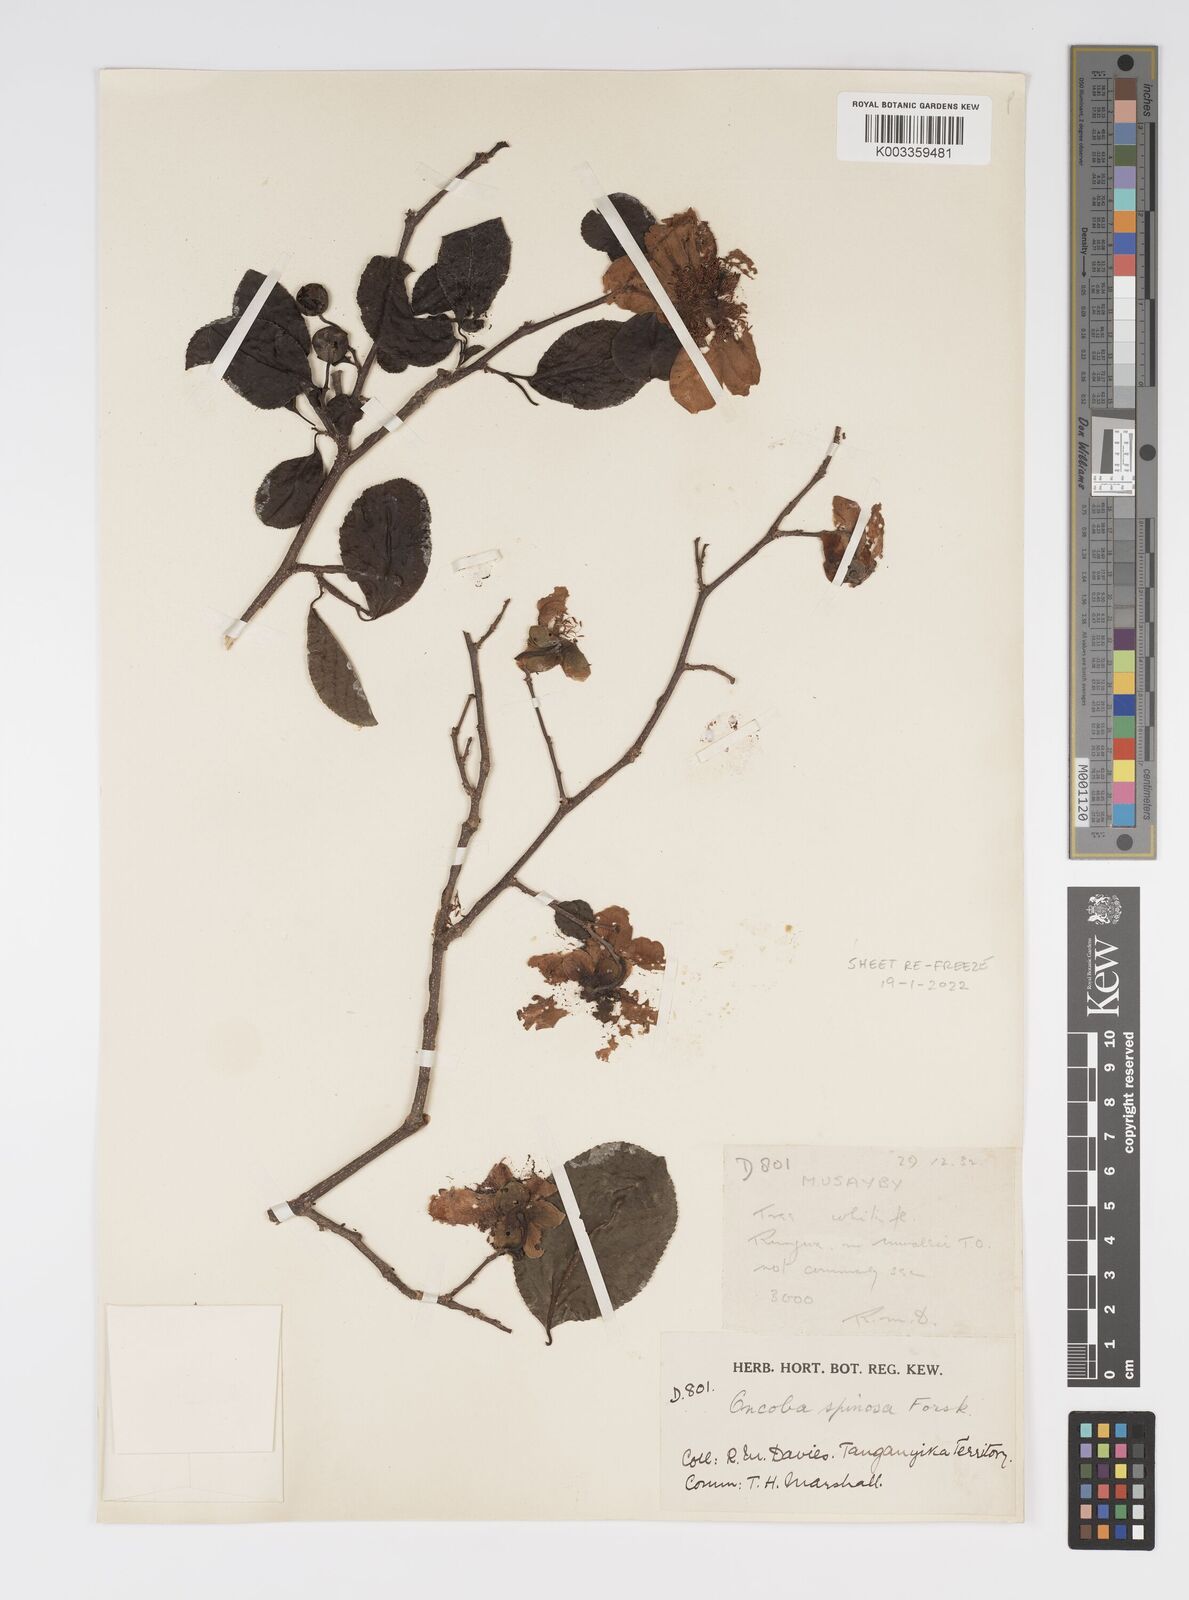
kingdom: Plantae
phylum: Tracheophyta
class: Magnoliopsida
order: Malpighiales
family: Salicaceae
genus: Oncoba
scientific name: Oncoba spinosa
